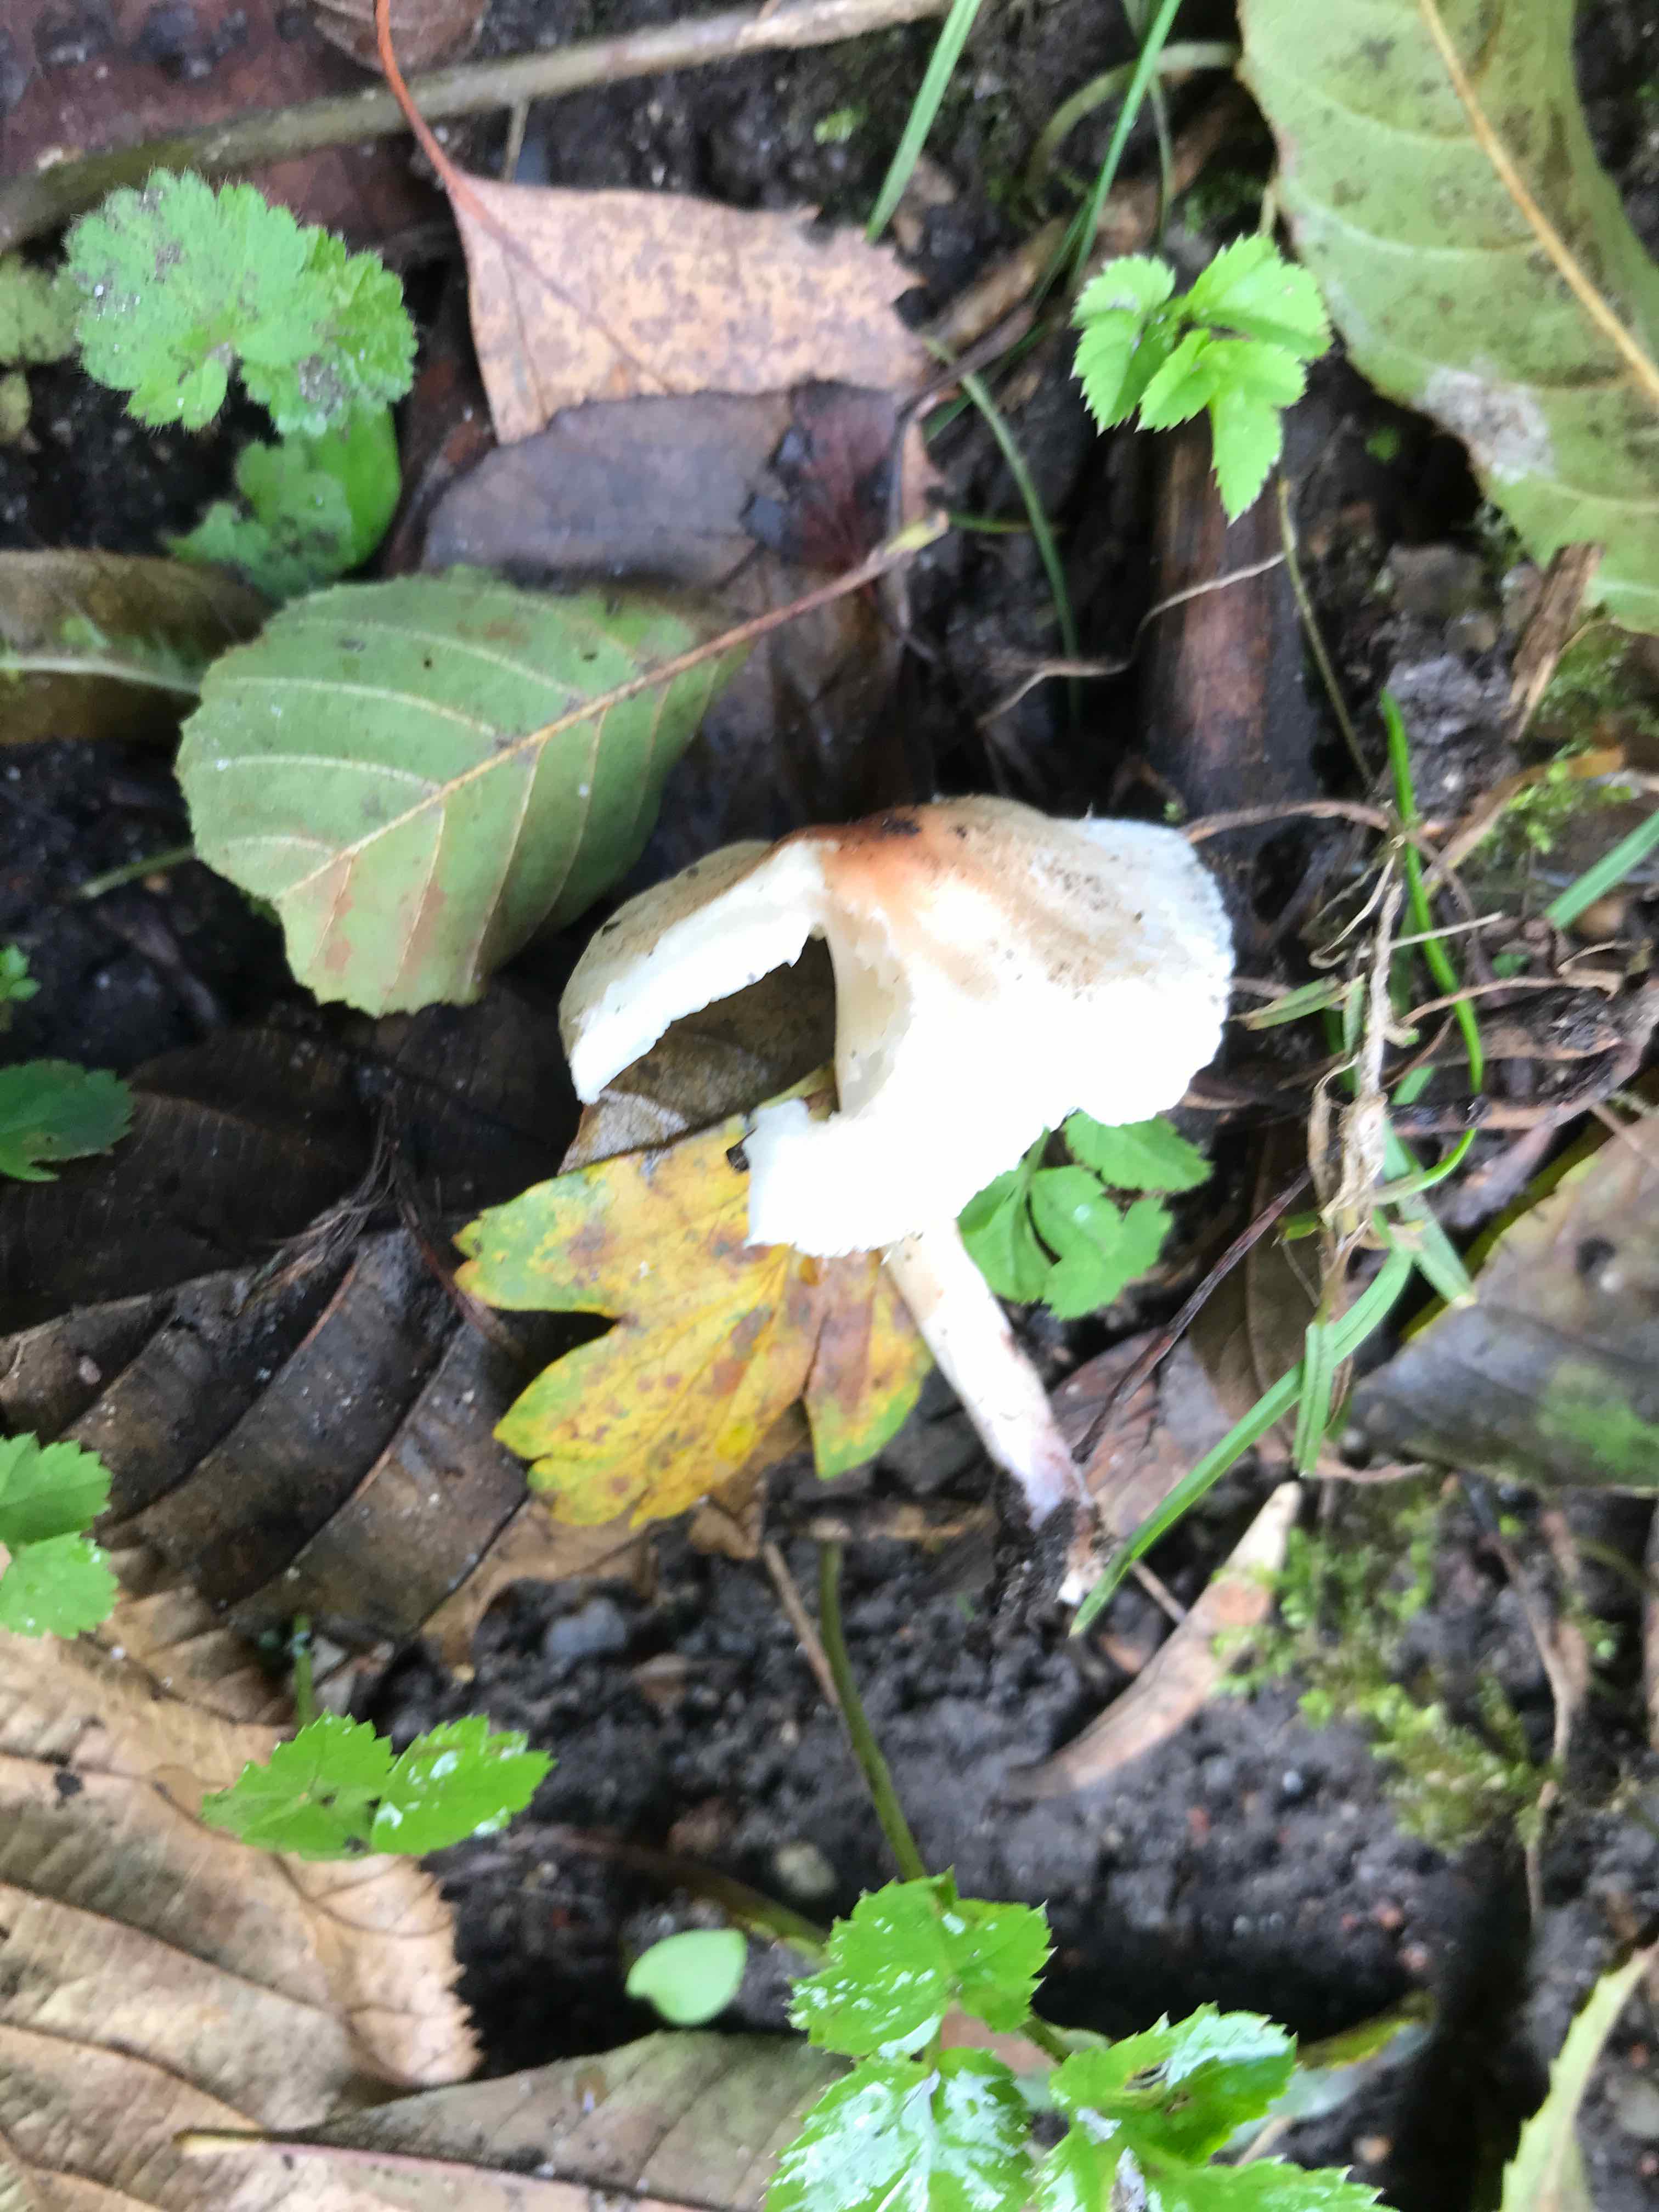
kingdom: Fungi
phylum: Basidiomycota
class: Agaricomycetes
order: Agaricales
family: Agaricaceae
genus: Lepiota
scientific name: Lepiota cristata
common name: stinkende parasolhat
